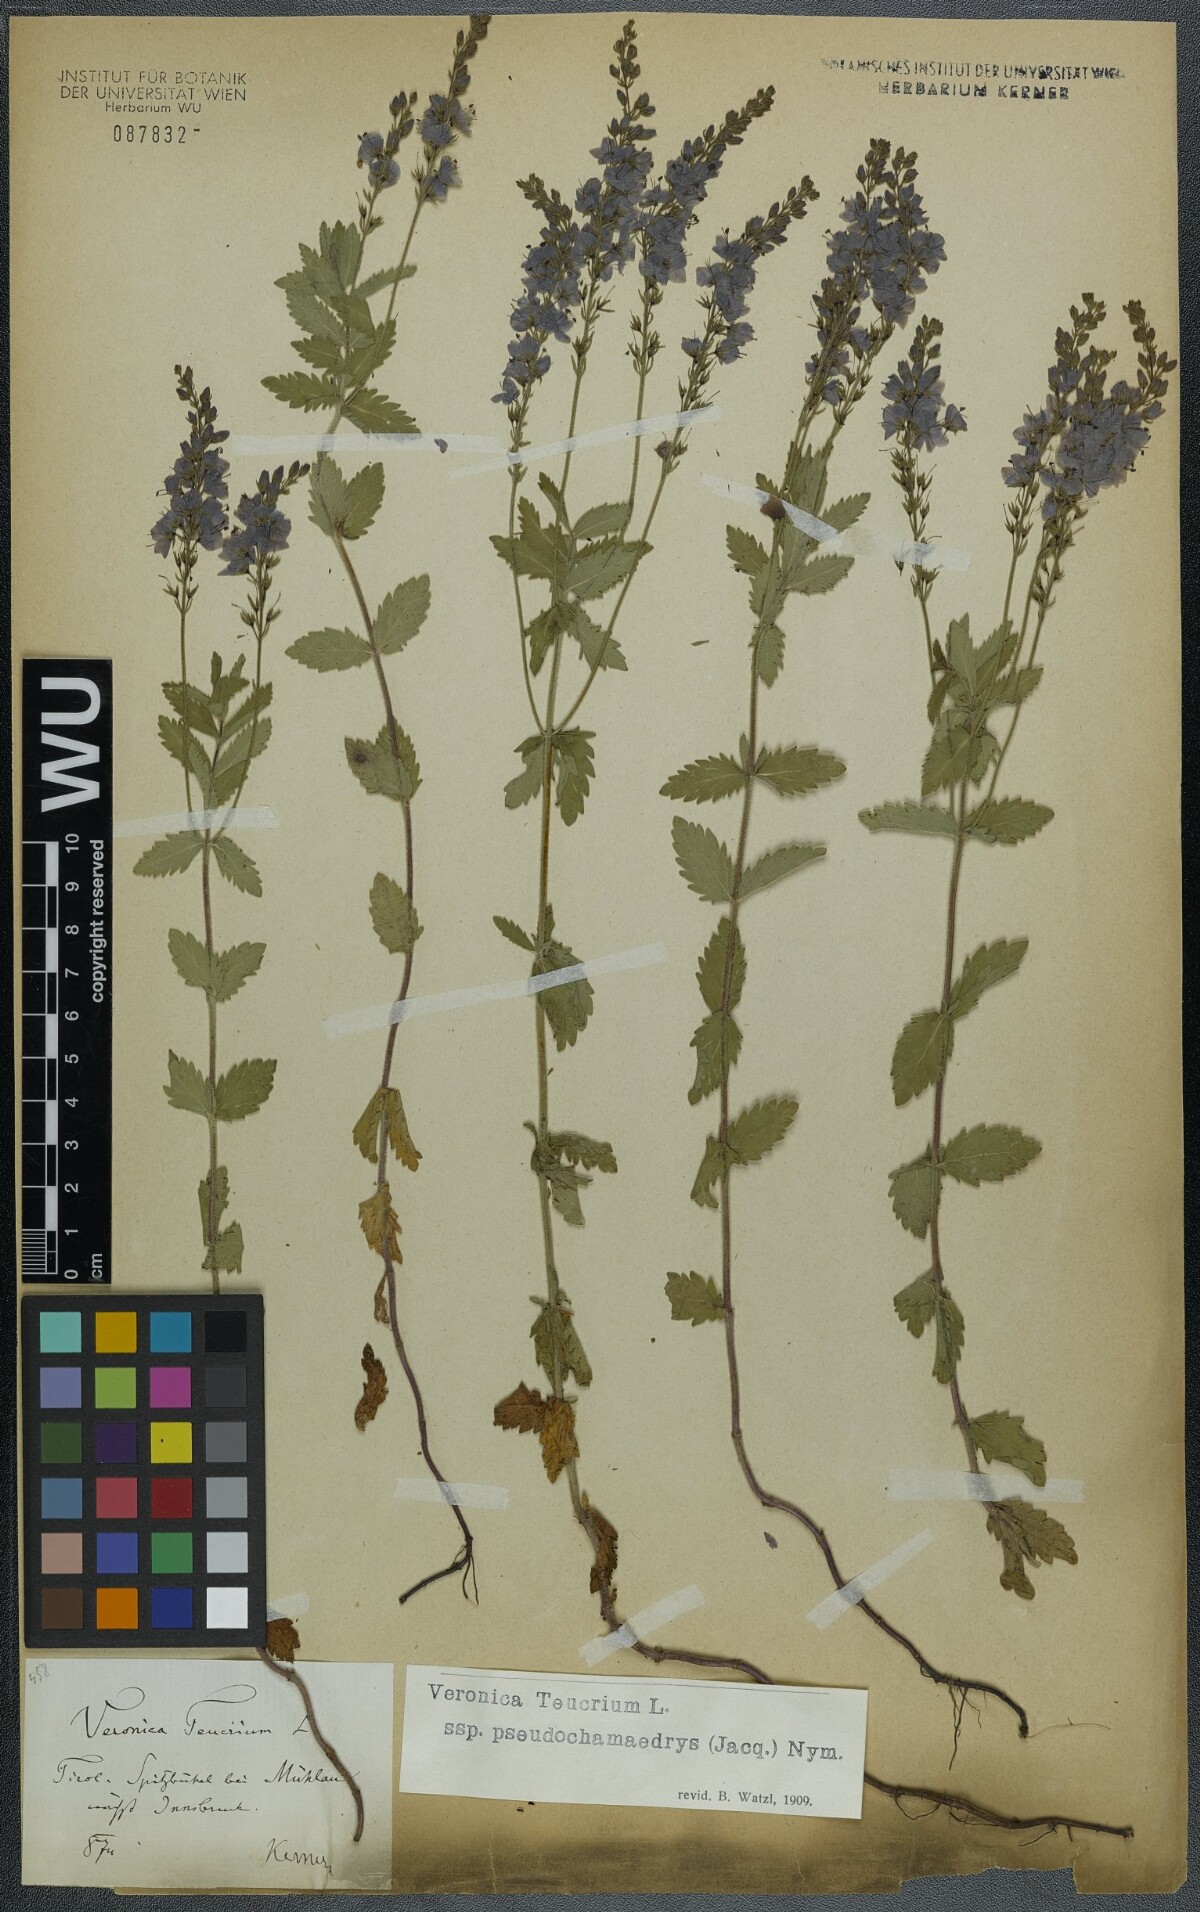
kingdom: Plantae
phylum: Tracheophyta
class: Magnoliopsida
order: Lamiales
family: Plantaginaceae
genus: Veronica
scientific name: Veronica teucrium
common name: Large speedwell
